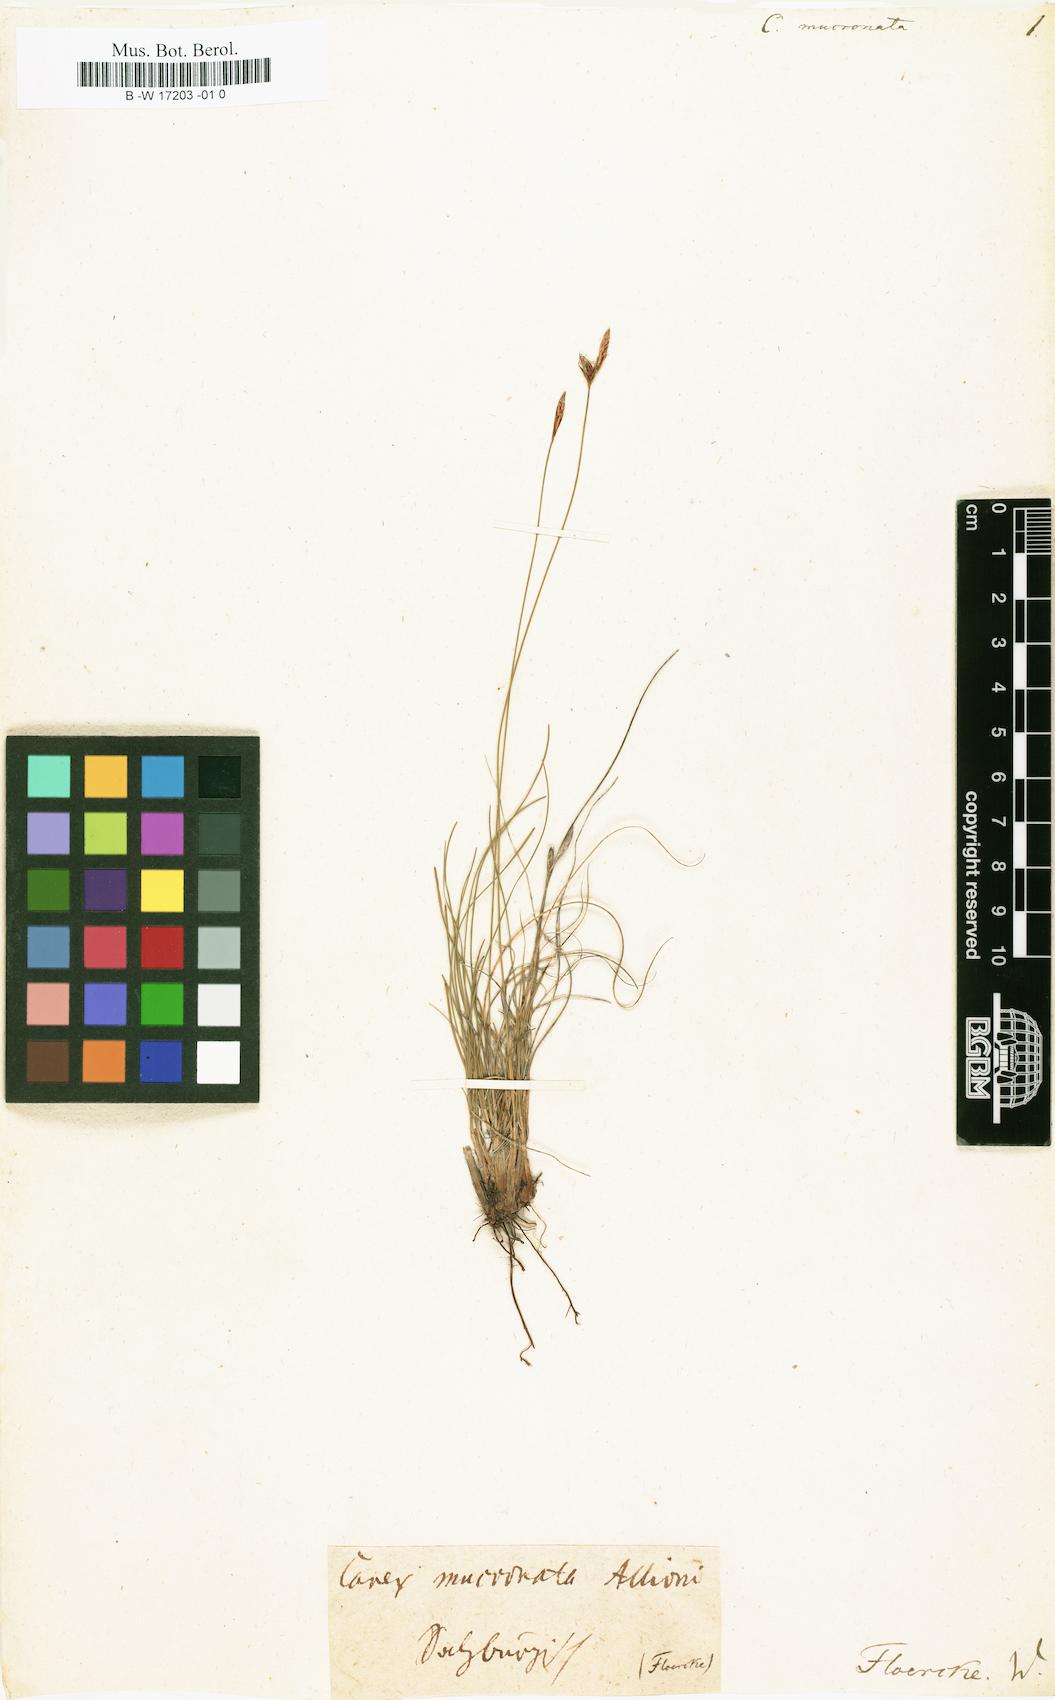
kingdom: Plantae
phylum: Tracheophyta
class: Liliopsida
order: Poales
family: Cyperaceae
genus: Carex
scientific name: Carex mucronata
